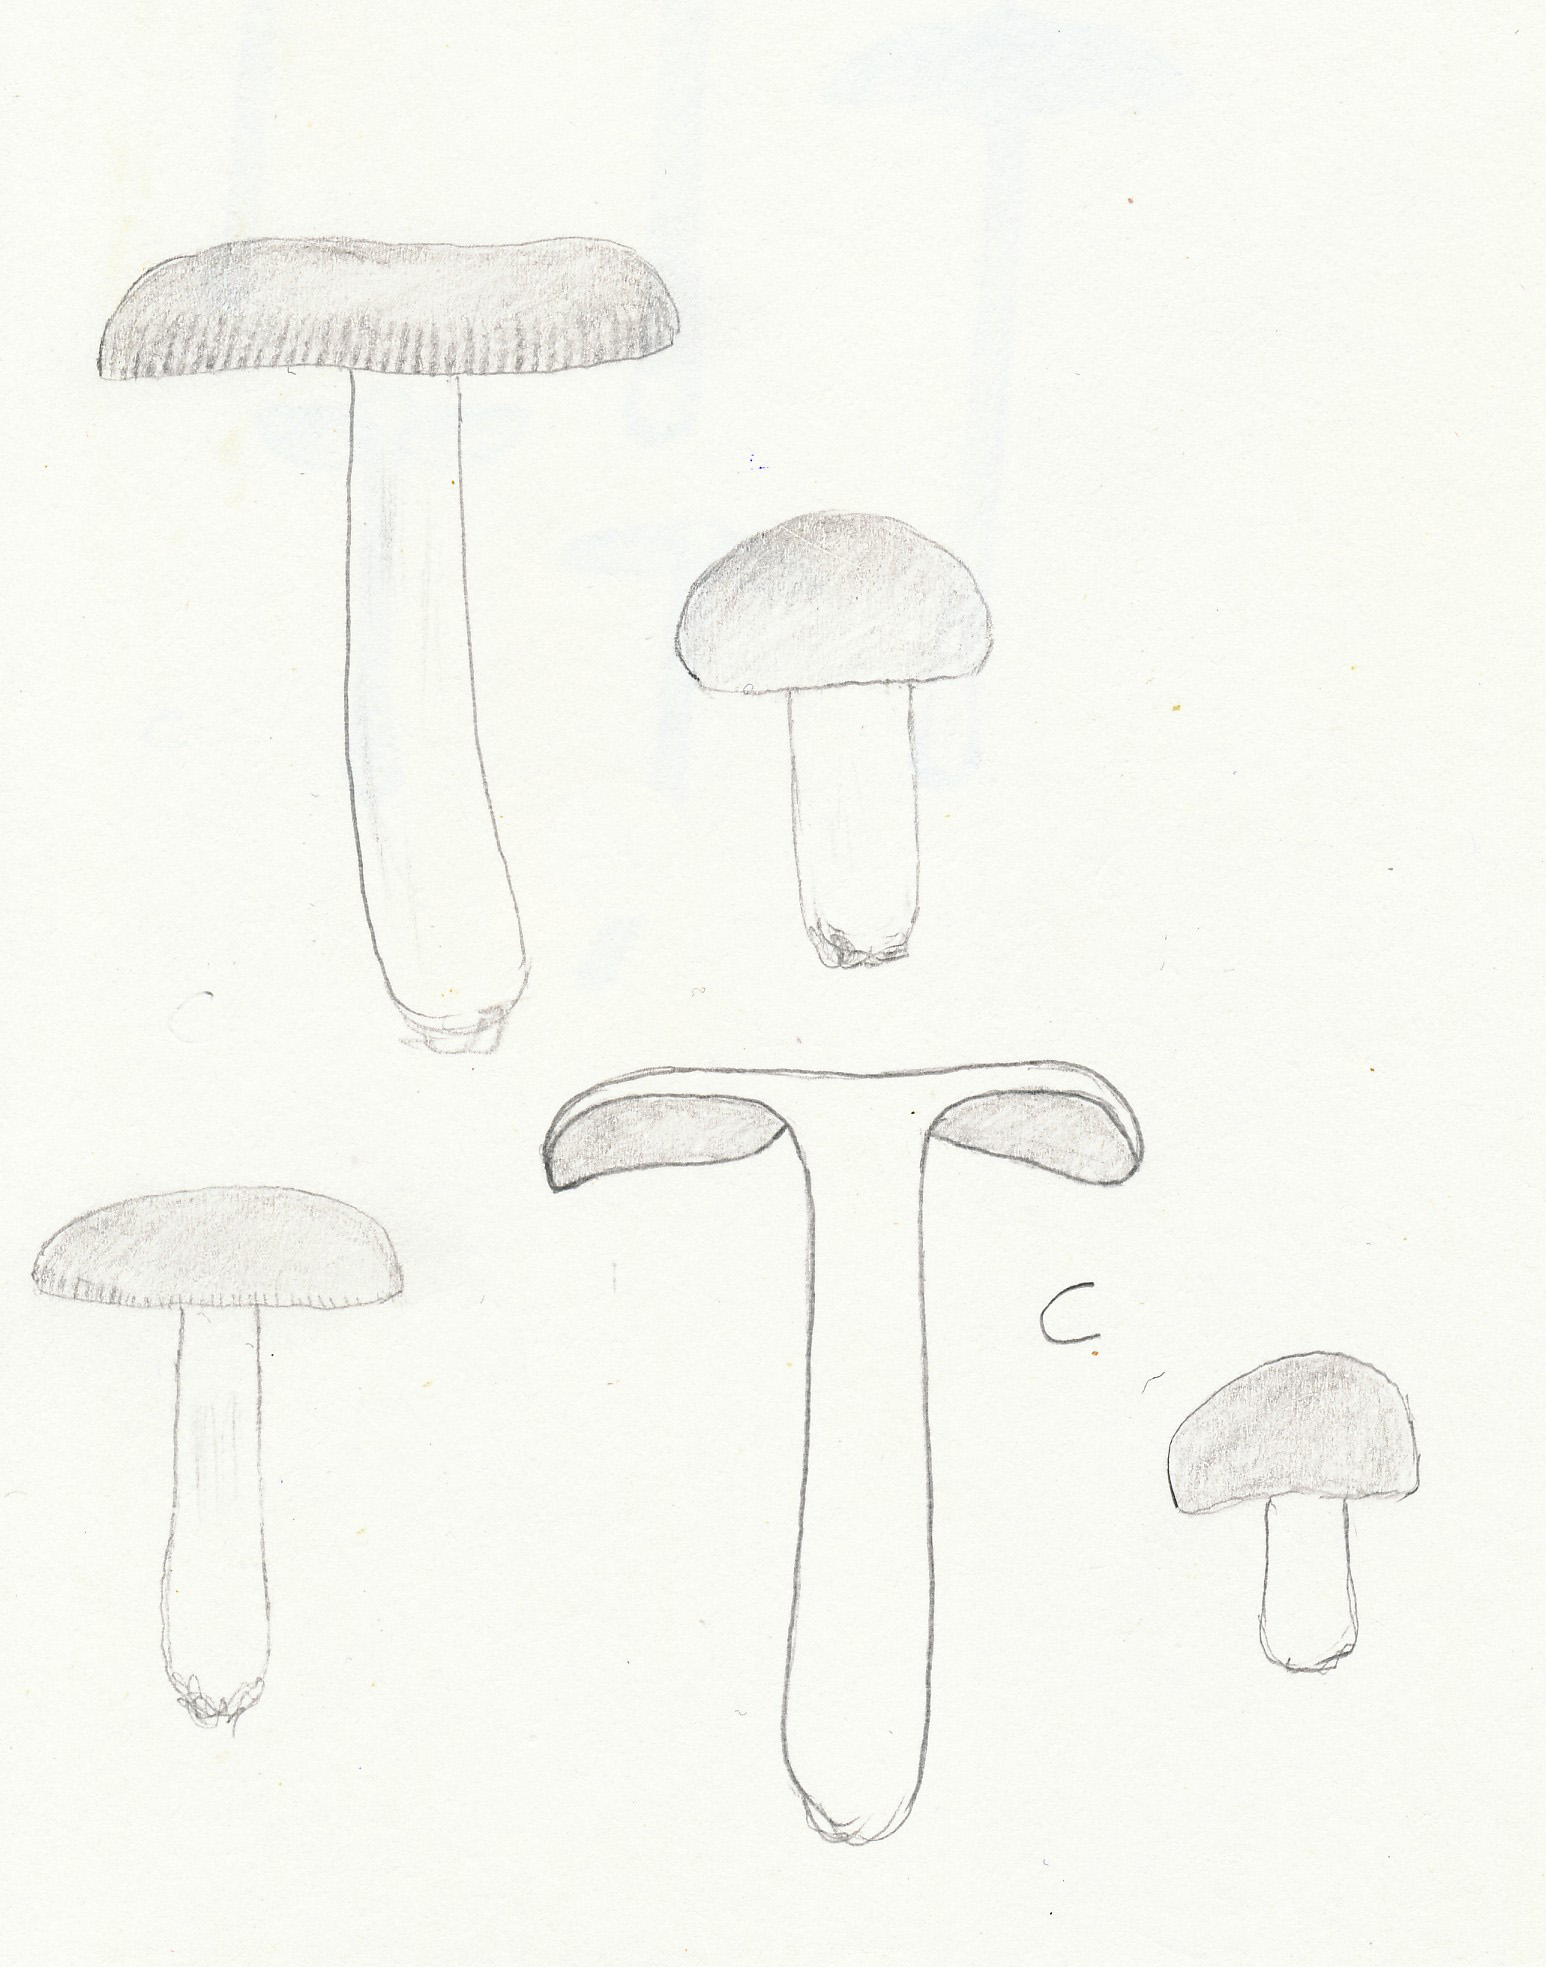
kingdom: Fungi
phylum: Basidiomycota
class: Agaricomycetes
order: Russulales
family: Russulaceae
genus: Russula
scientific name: Russula risigallina
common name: abrikos-skørhat
